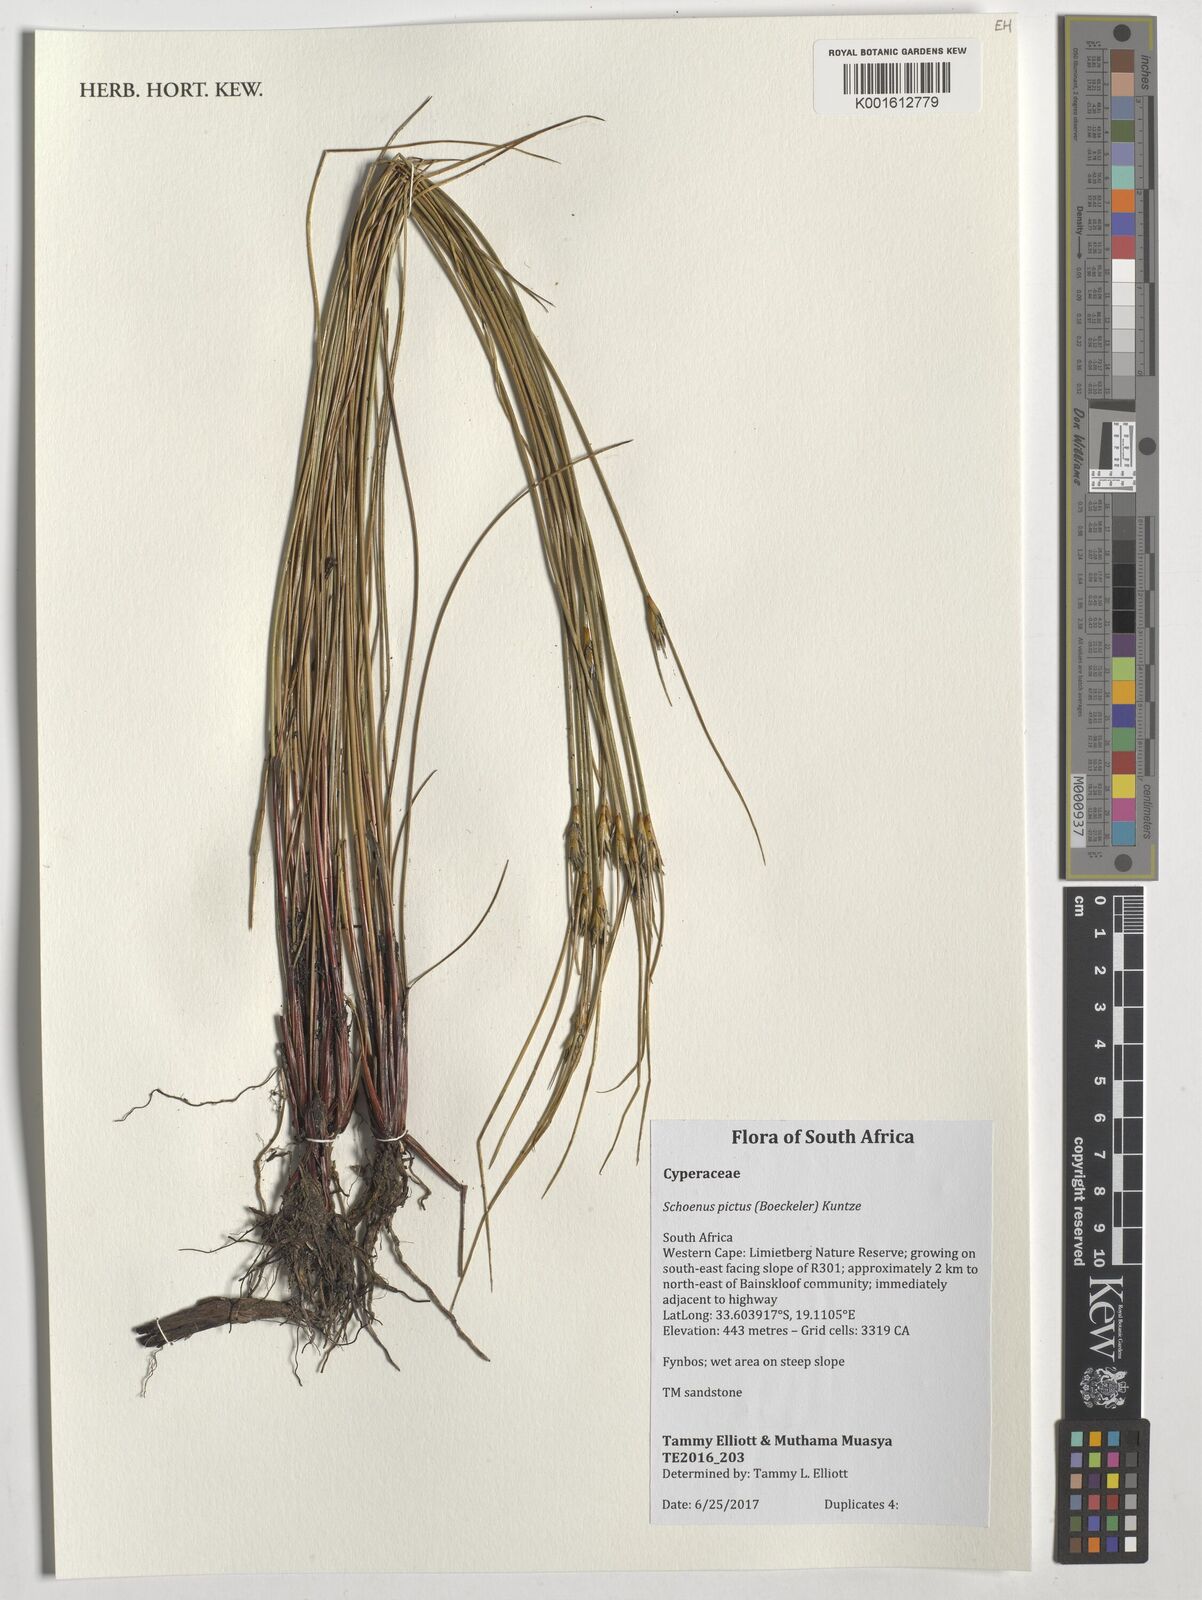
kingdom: Plantae
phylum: Tracheophyta
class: Liliopsida
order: Poales
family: Cyperaceae
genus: Schoenus
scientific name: Schoenus pictus
